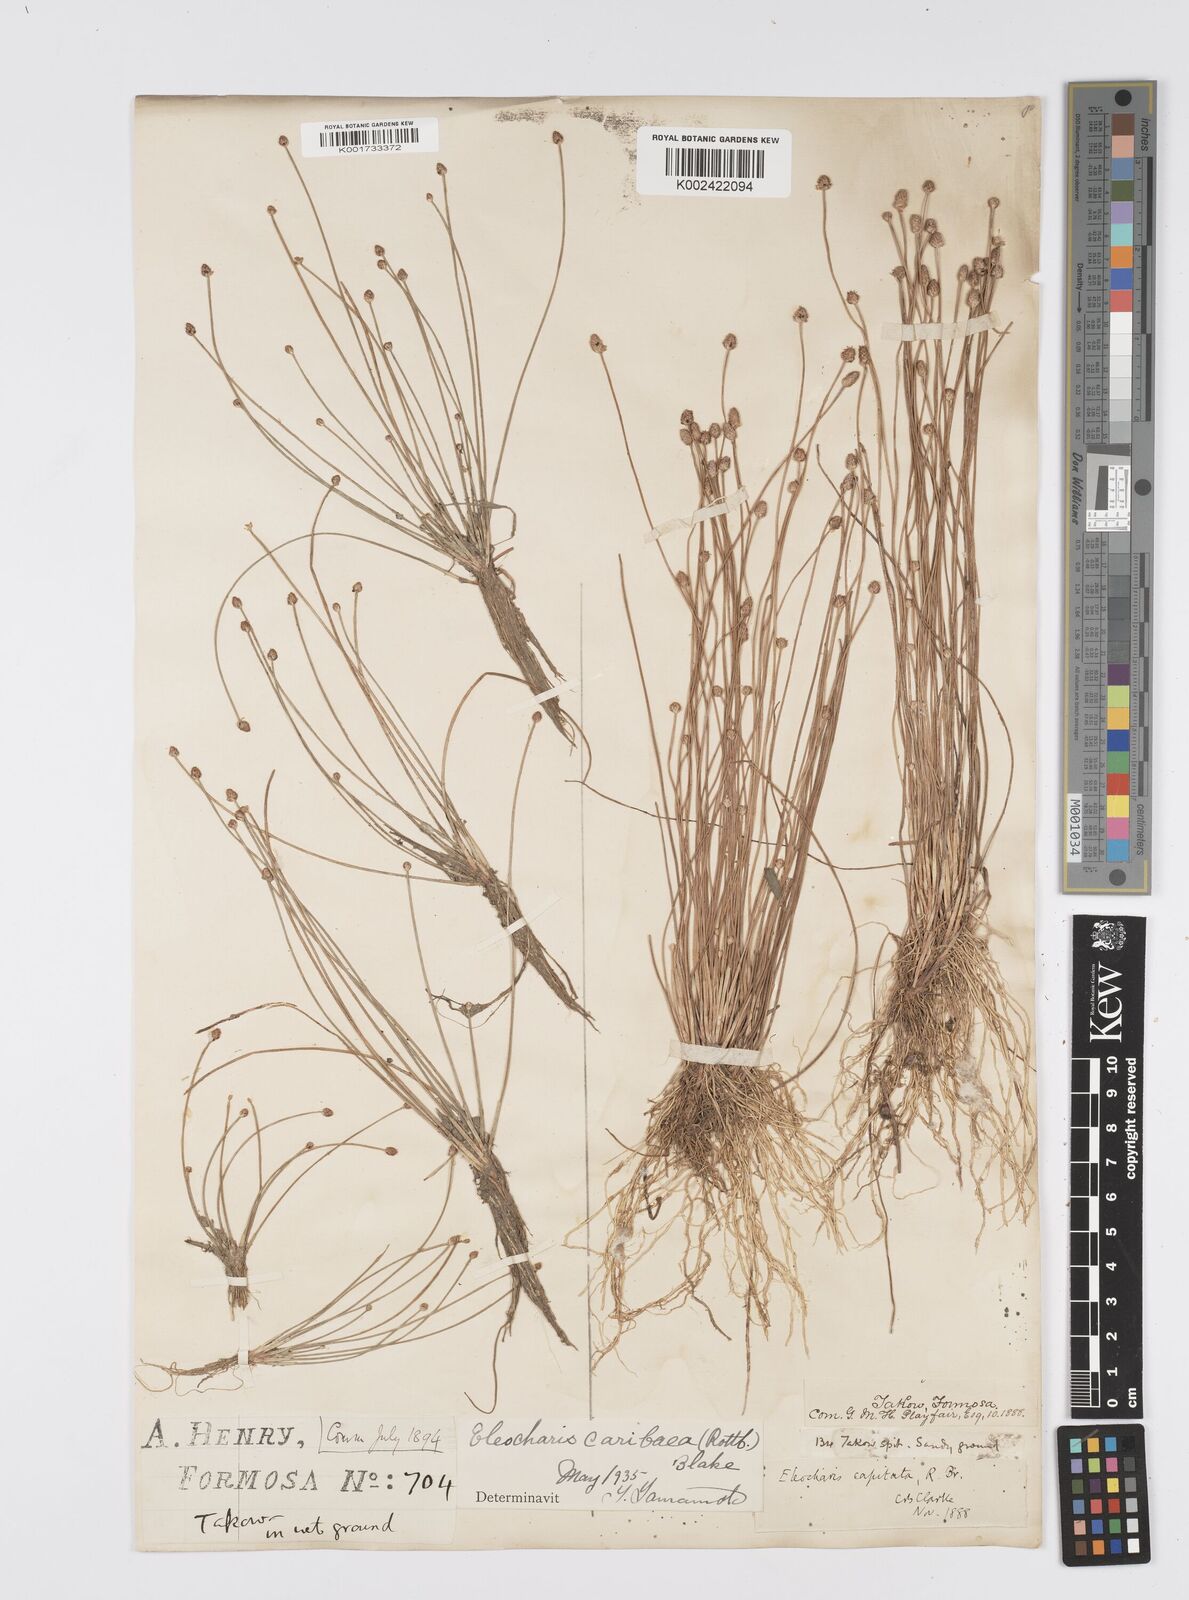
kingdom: Plantae
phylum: Tracheophyta
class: Liliopsida
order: Poales
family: Cyperaceae
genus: Eleocharis
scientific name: Eleocharis geniculata
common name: Canada spikesedge
